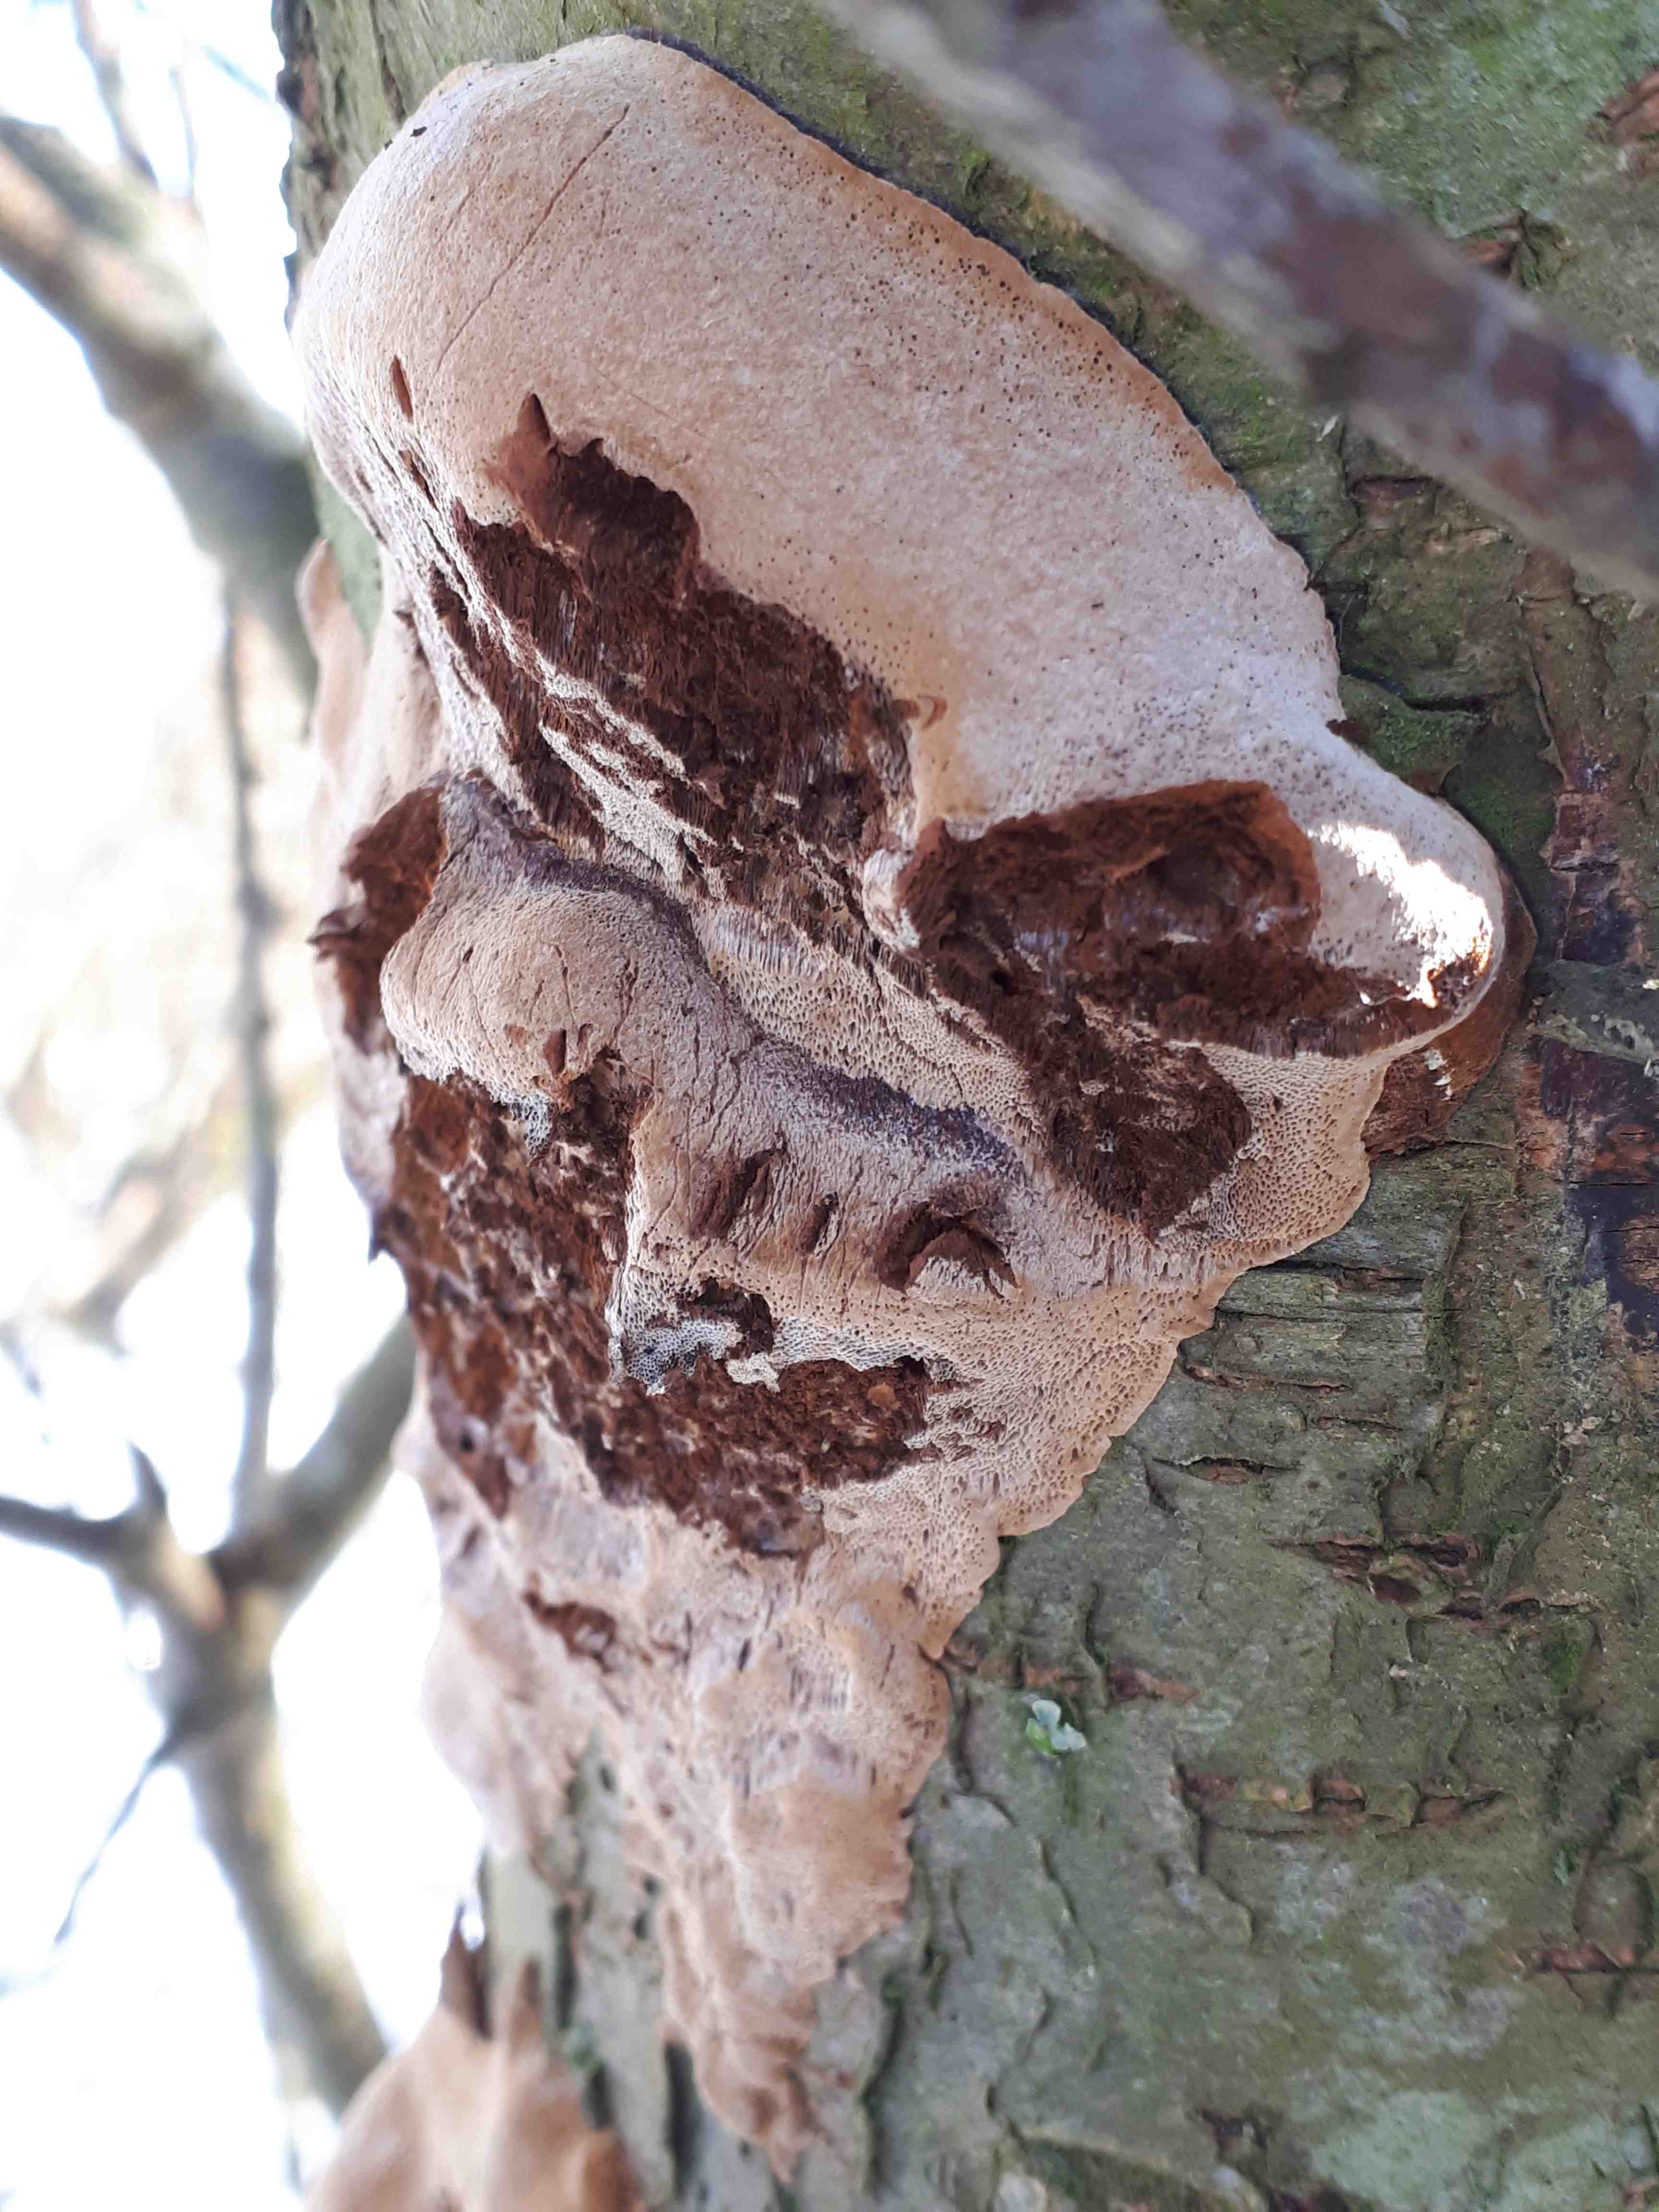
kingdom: Fungi
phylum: Basidiomycota
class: Agaricomycetes
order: Hymenochaetales
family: Hymenochaetaceae
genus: Phellinus
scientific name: Phellinus pomaceus
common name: blomme-ildporesvamp
